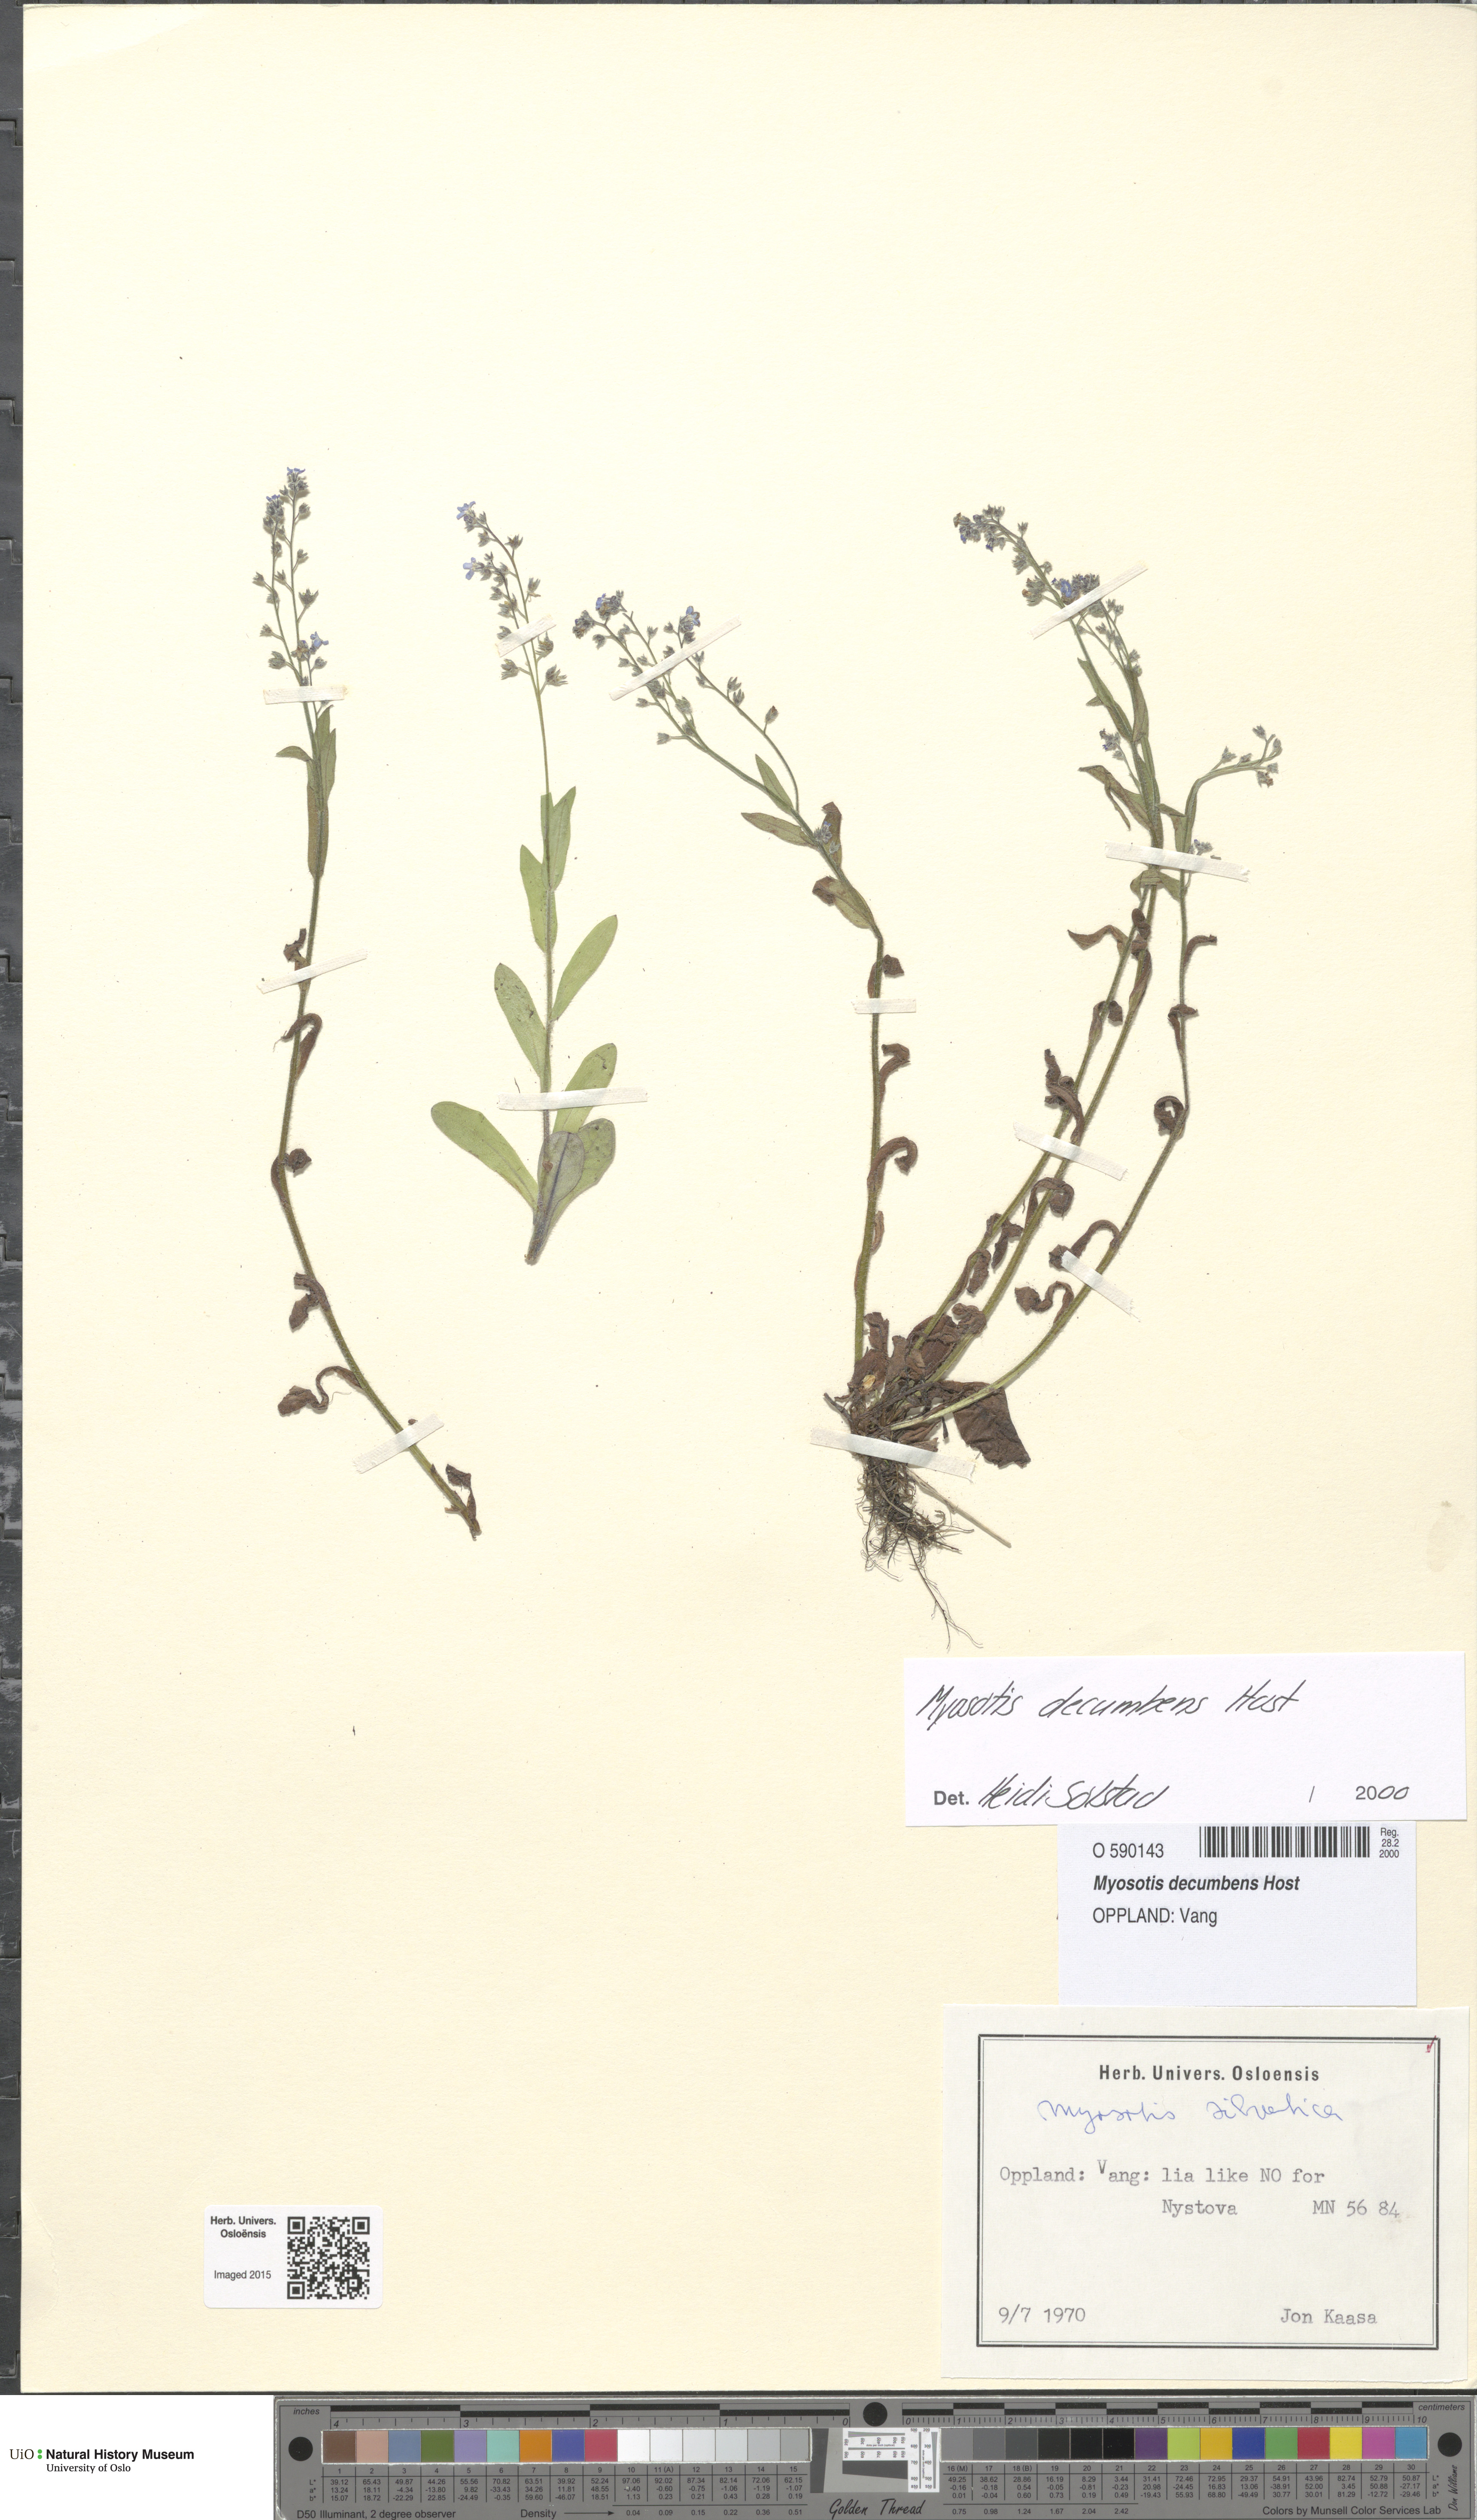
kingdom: Plantae
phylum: Tracheophyta
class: Magnoliopsida
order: Boraginales
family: Boraginaceae
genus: Myosotis
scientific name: Myosotis decumbens
